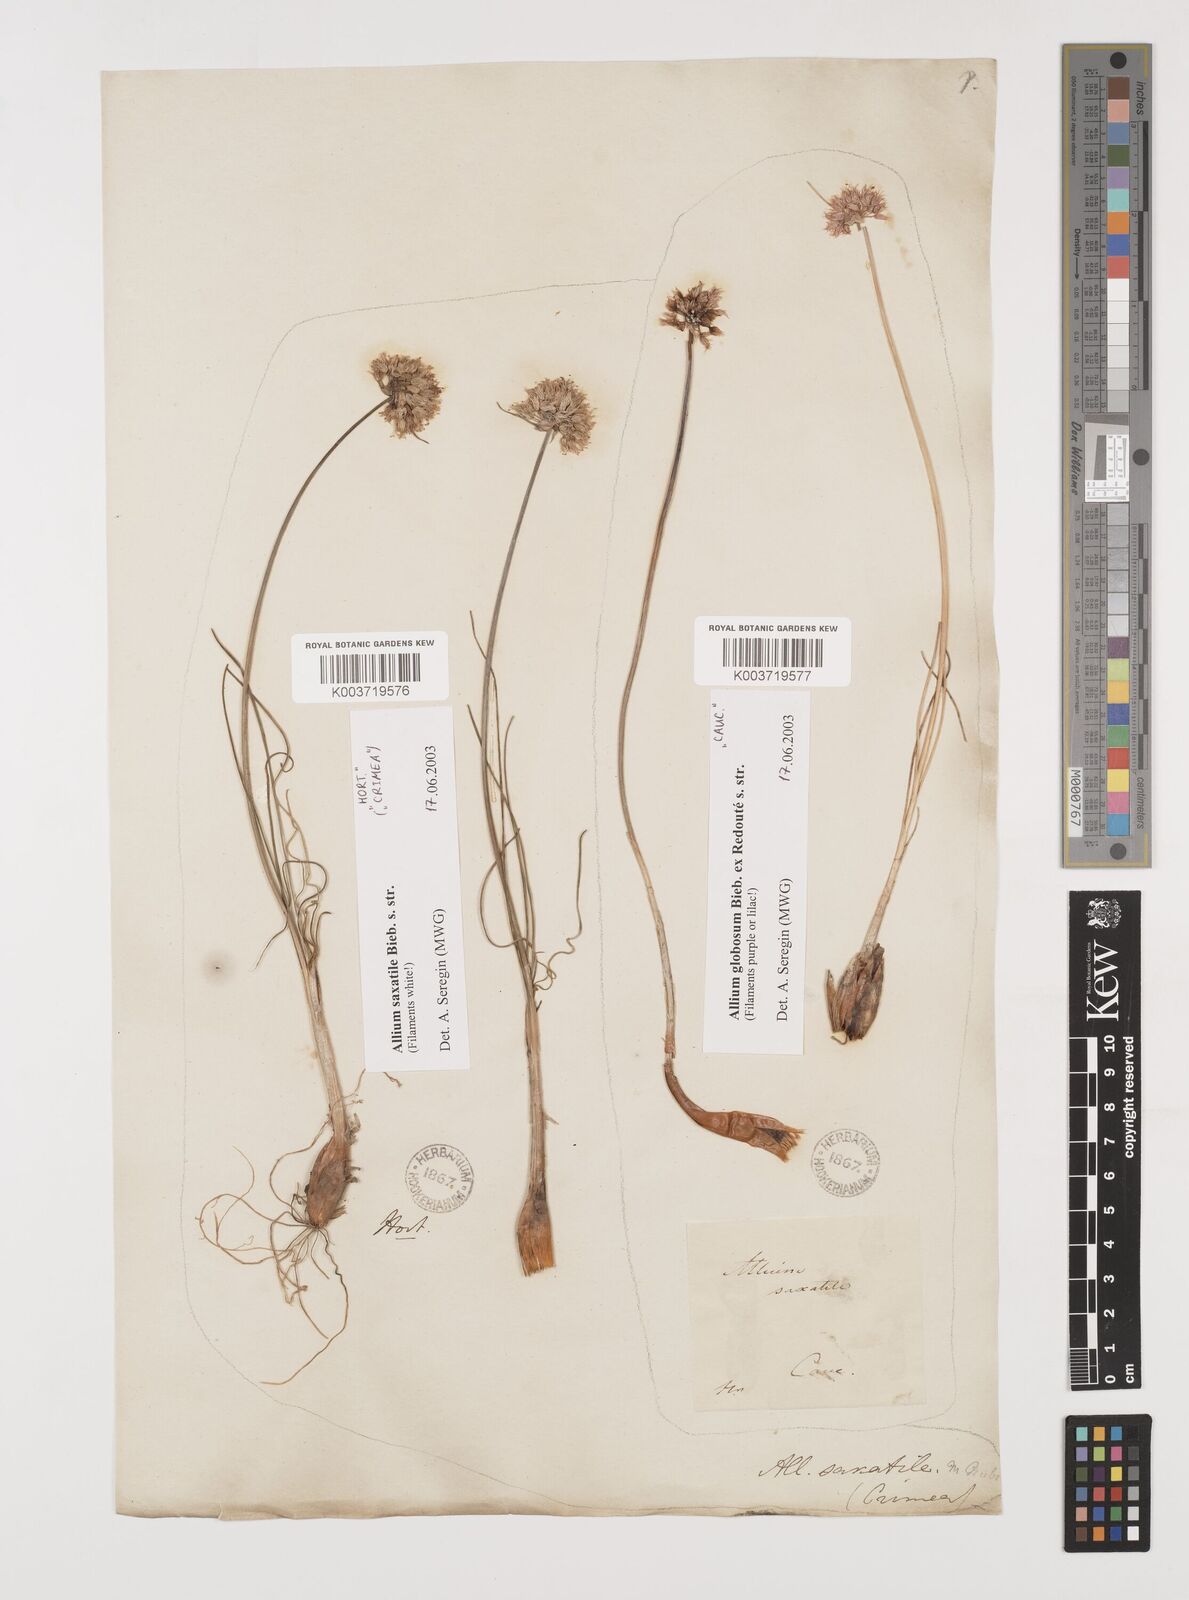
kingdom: Plantae
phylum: Tracheophyta
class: Liliopsida
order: Asparagales
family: Amaryllidaceae
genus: Allium
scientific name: Allium saxatile
